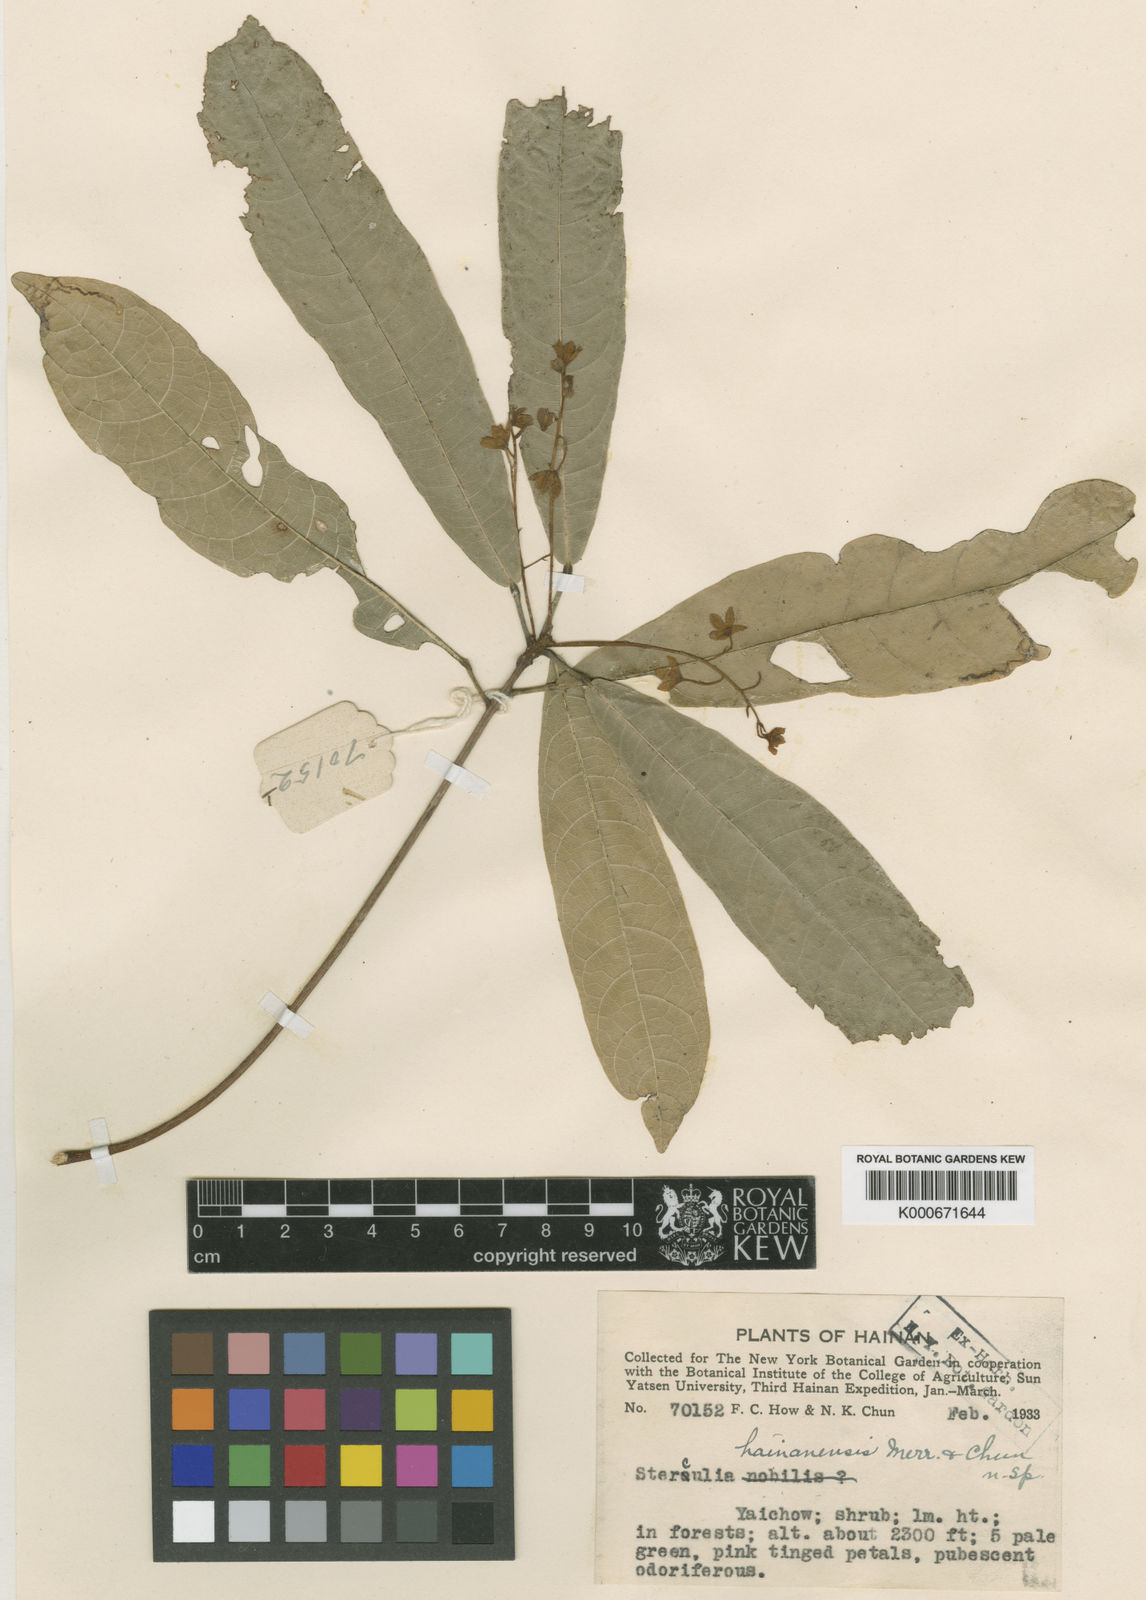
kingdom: Plantae
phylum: Tracheophyta
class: Magnoliopsida
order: Malvales
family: Malvaceae
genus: Sterculia
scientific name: Sterculia hainanensis
